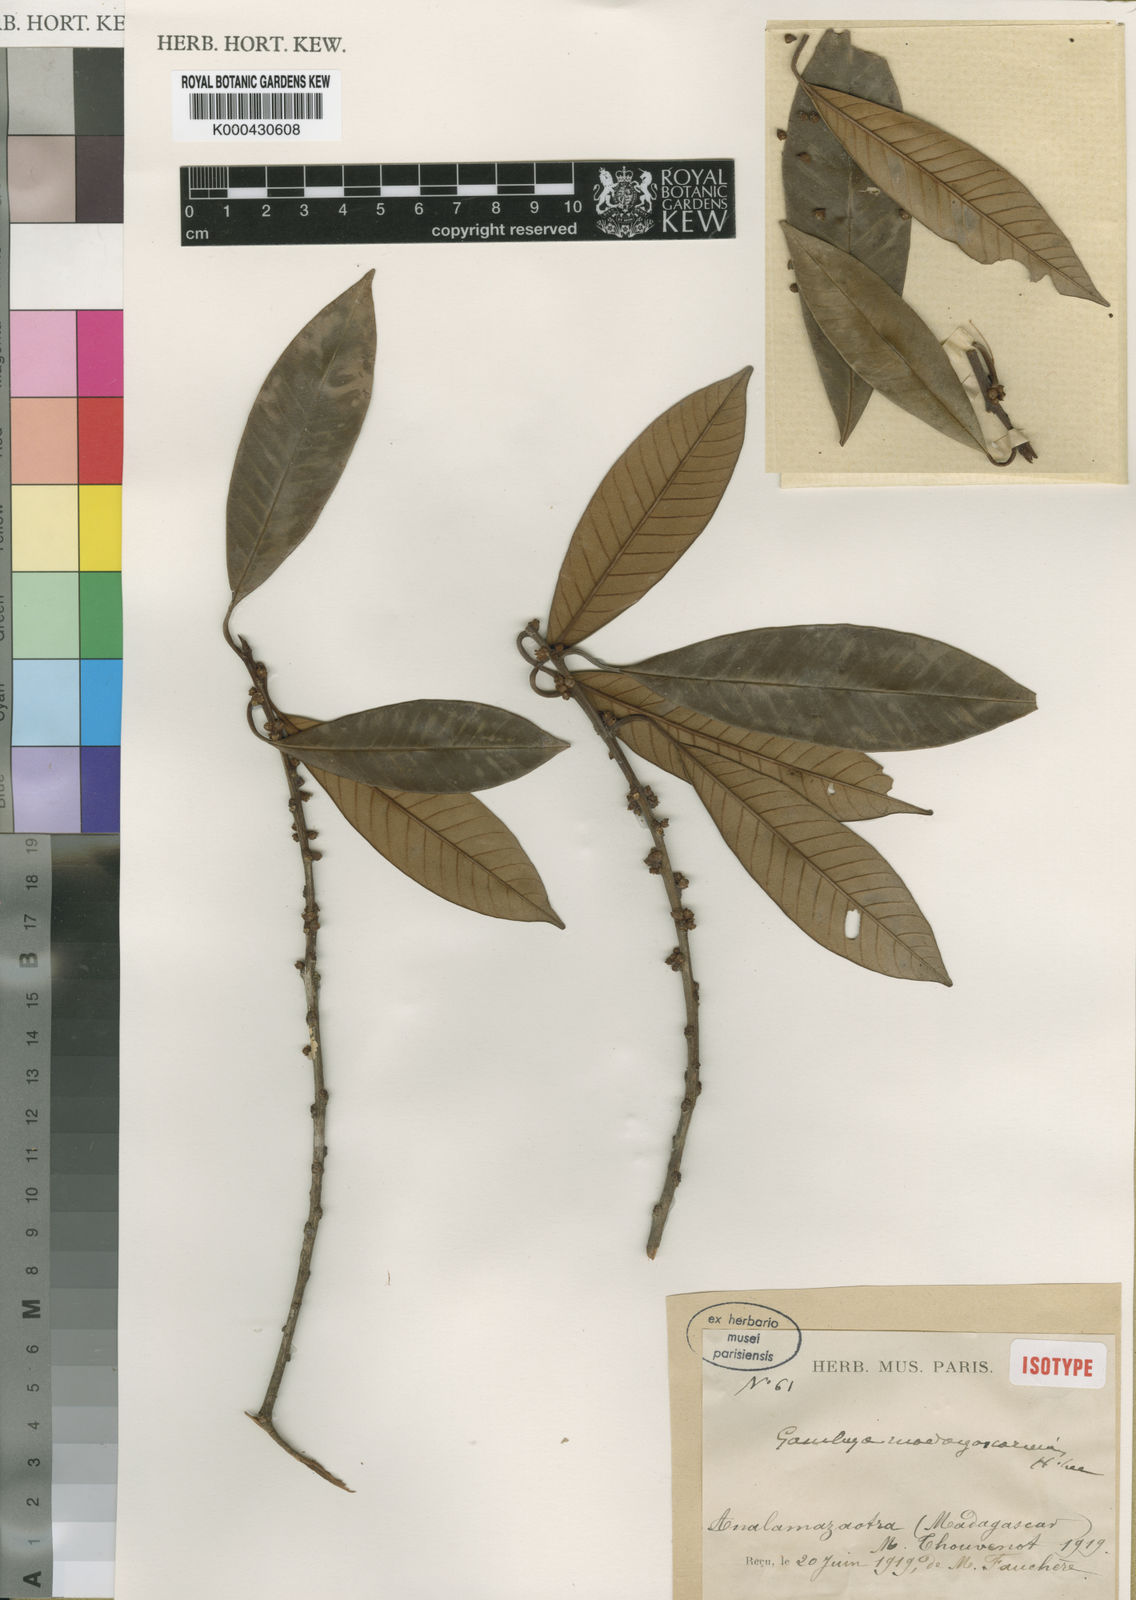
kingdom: Plantae
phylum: Tracheophyta
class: Magnoliopsida
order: Ericales
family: Sapotaceae
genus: Chrysophyllum
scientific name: Chrysophyllum
